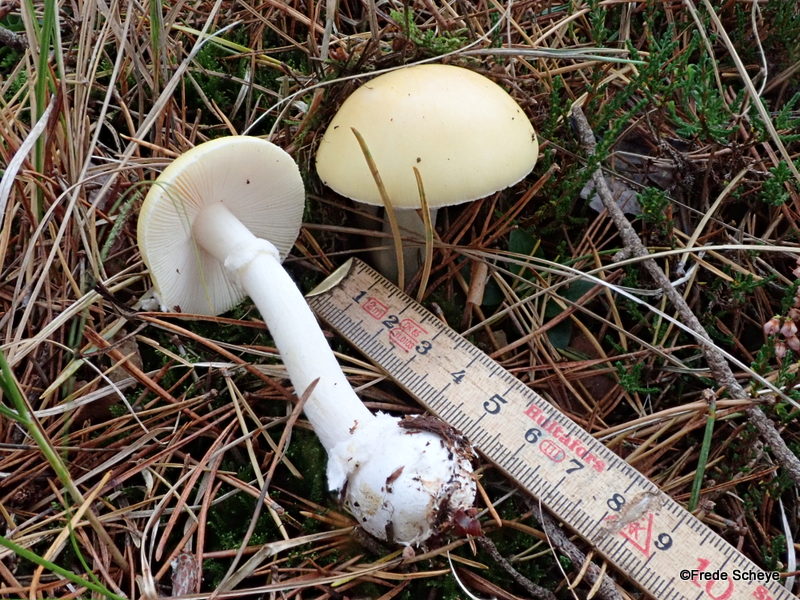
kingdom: Fungi
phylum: Basidiomycota
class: Agaricomycetes
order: Agaricales
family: Amanitaceae
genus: Amanita
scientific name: Amanita gemmata
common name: okkergul fluesvamp
